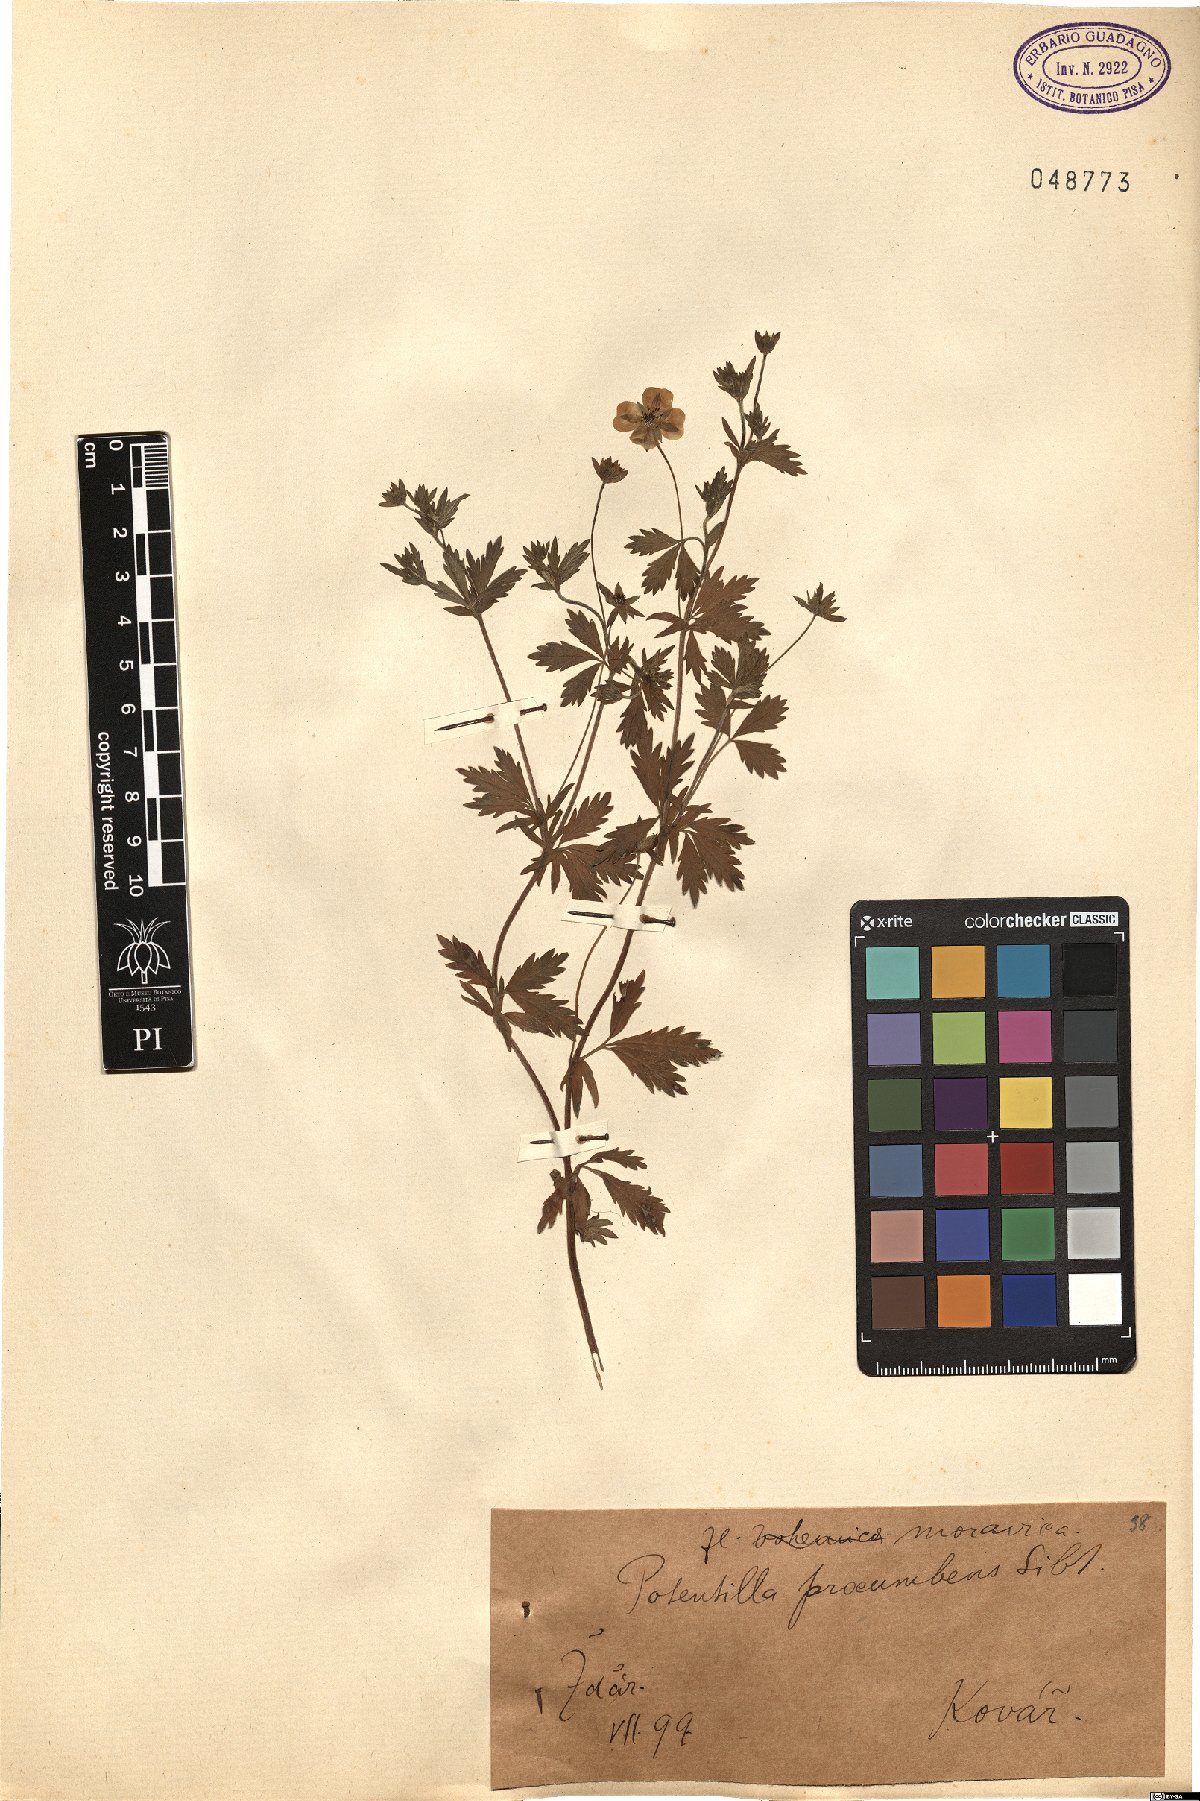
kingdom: Plantae
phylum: Tracheophyta
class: Magnoliopsida
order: Rosales
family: Rosaceae
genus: Potentilla
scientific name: Potentilla
